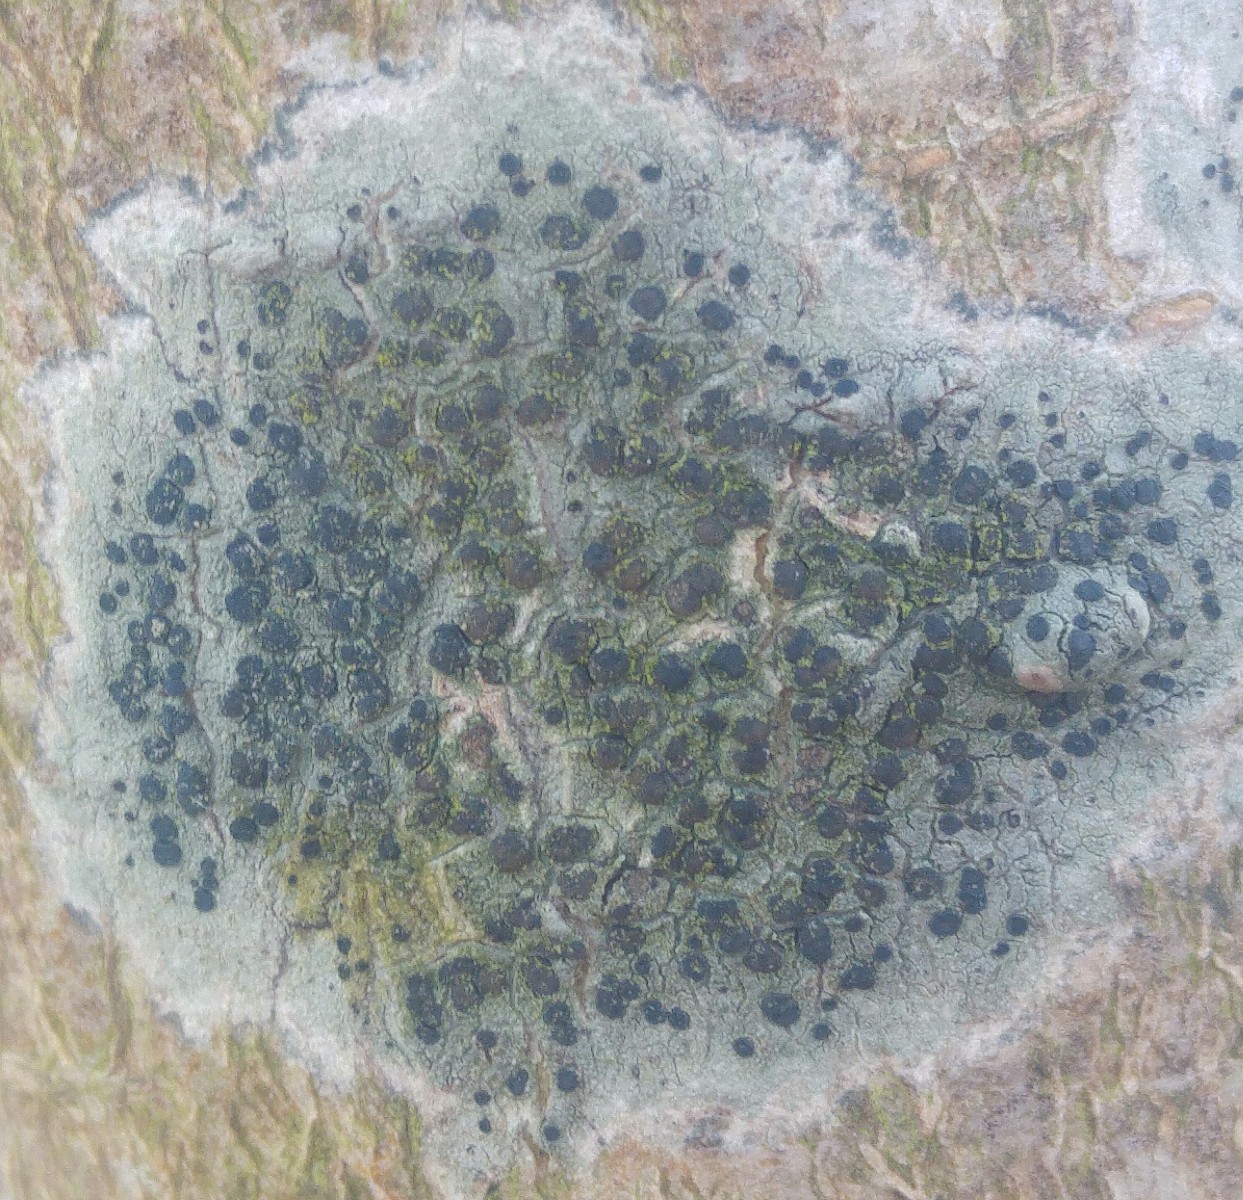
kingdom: Fungi
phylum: Ascomycota
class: Lecanoromycetes
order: Lecanorales
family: Lecanoraceae
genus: Lecidella
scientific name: Lecidella elaeochroma
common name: grågrøn skivelav
